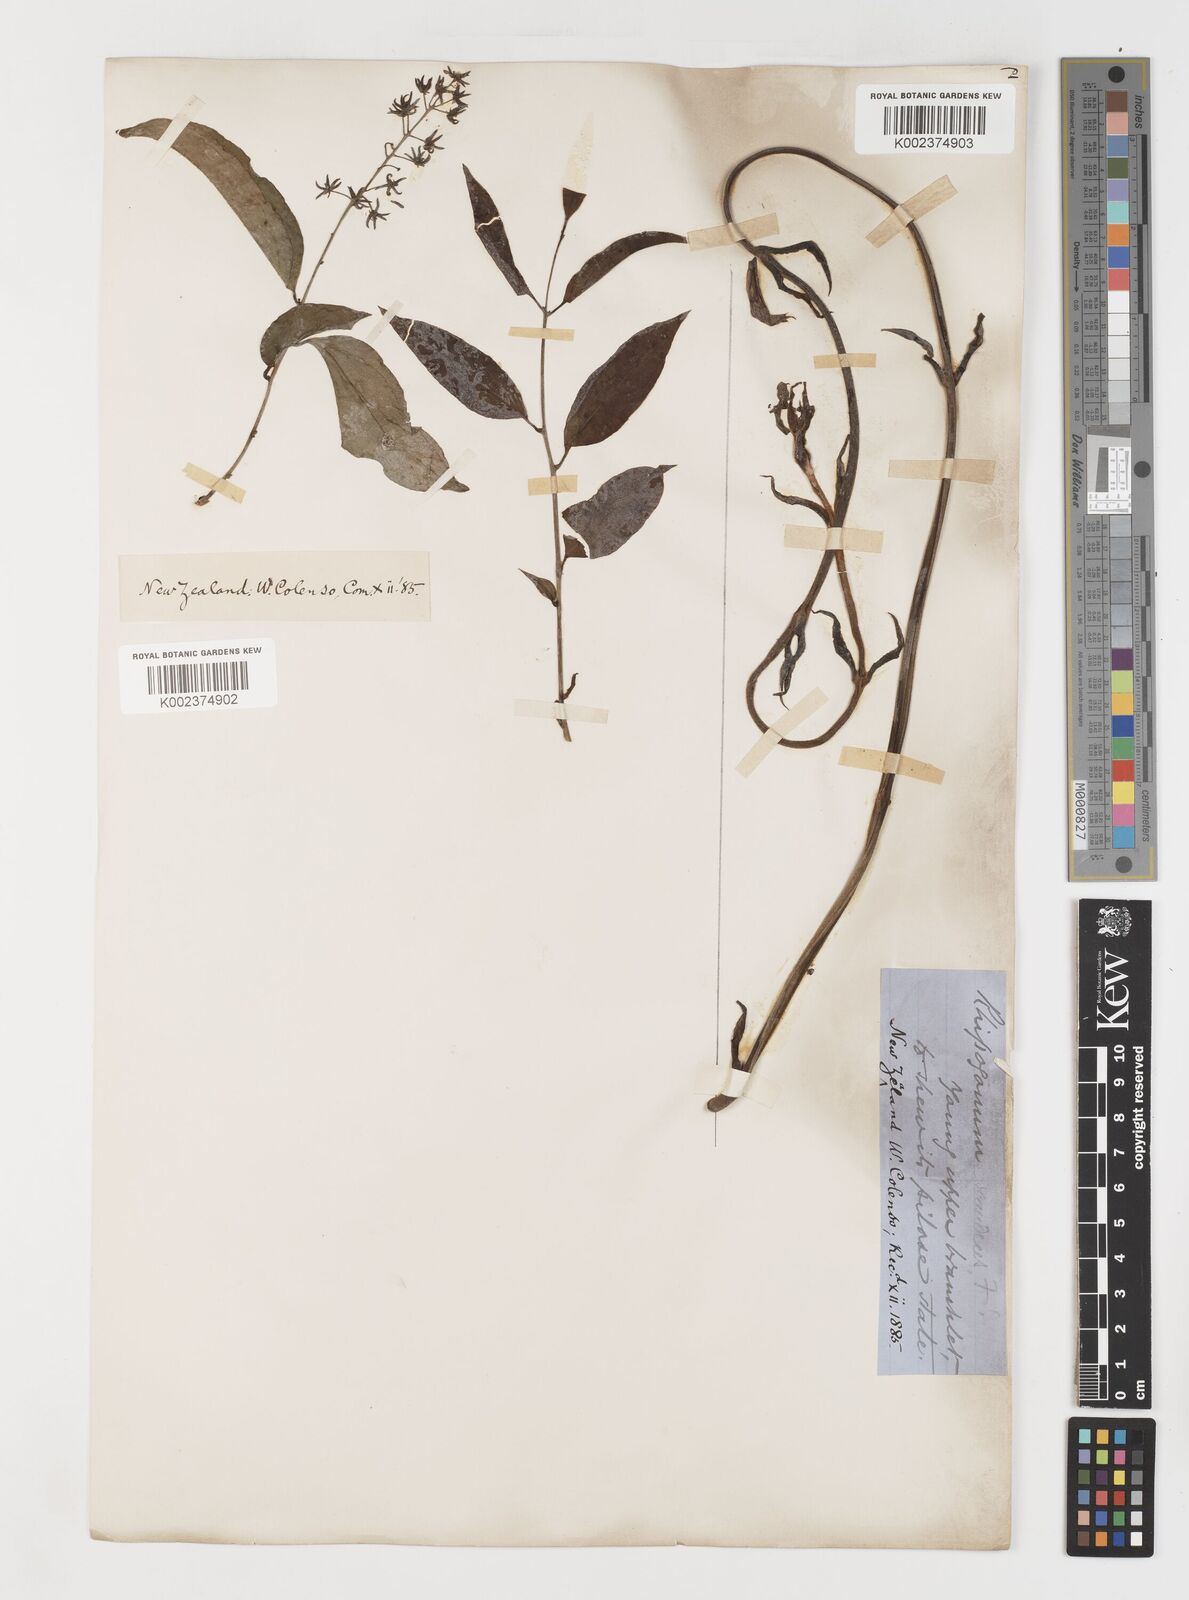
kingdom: Plantae
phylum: Tracheophyta
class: Liliopsida
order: Liliales
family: Ripogonaceae
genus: Ripogonum
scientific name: Ripogonum scandens
